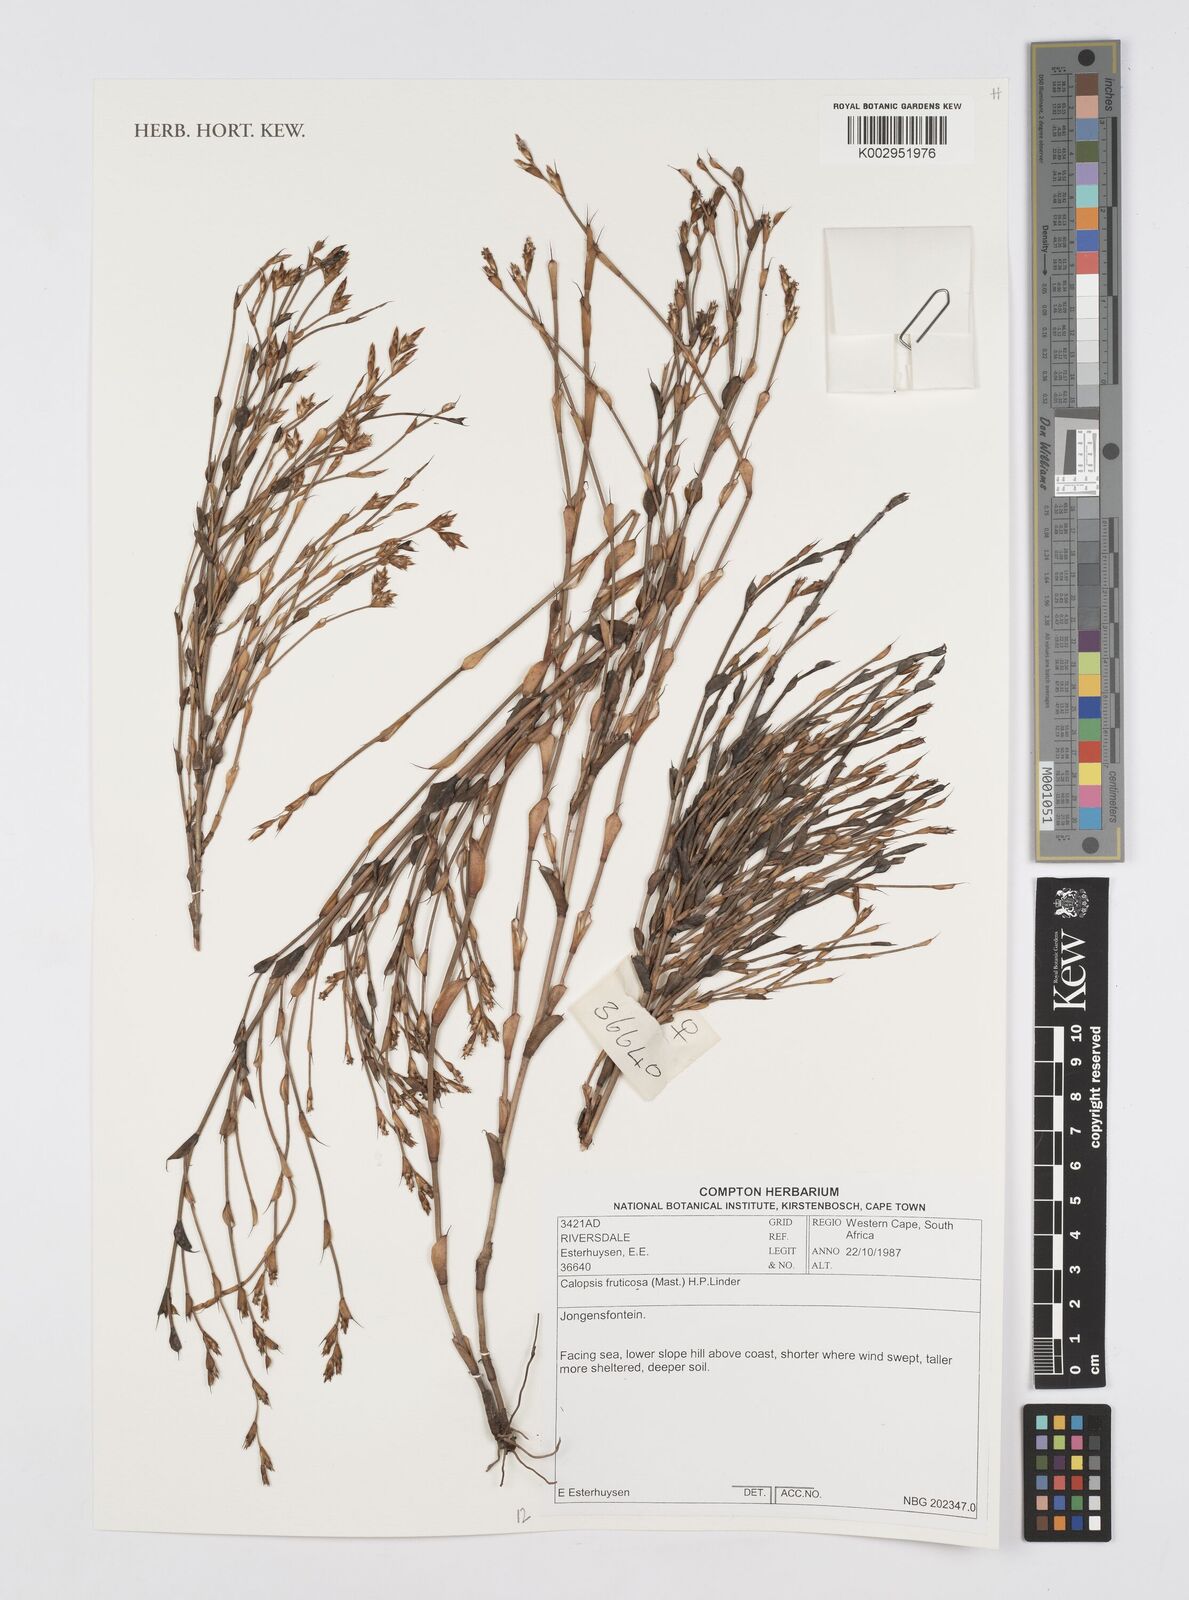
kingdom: Plantae
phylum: Tracheophyta
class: Liliopsida
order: Poales
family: Restionaceae
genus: Rhodocoma
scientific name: Rhodocoma fruticosa
